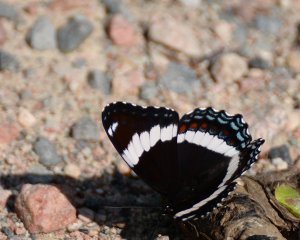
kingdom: Animalia
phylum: Arthropoda
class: Insecta
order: Lepidoptera
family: Nymphalidae
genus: Limenitis
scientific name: Limenitis arthemis
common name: Red-spotted Admiral
